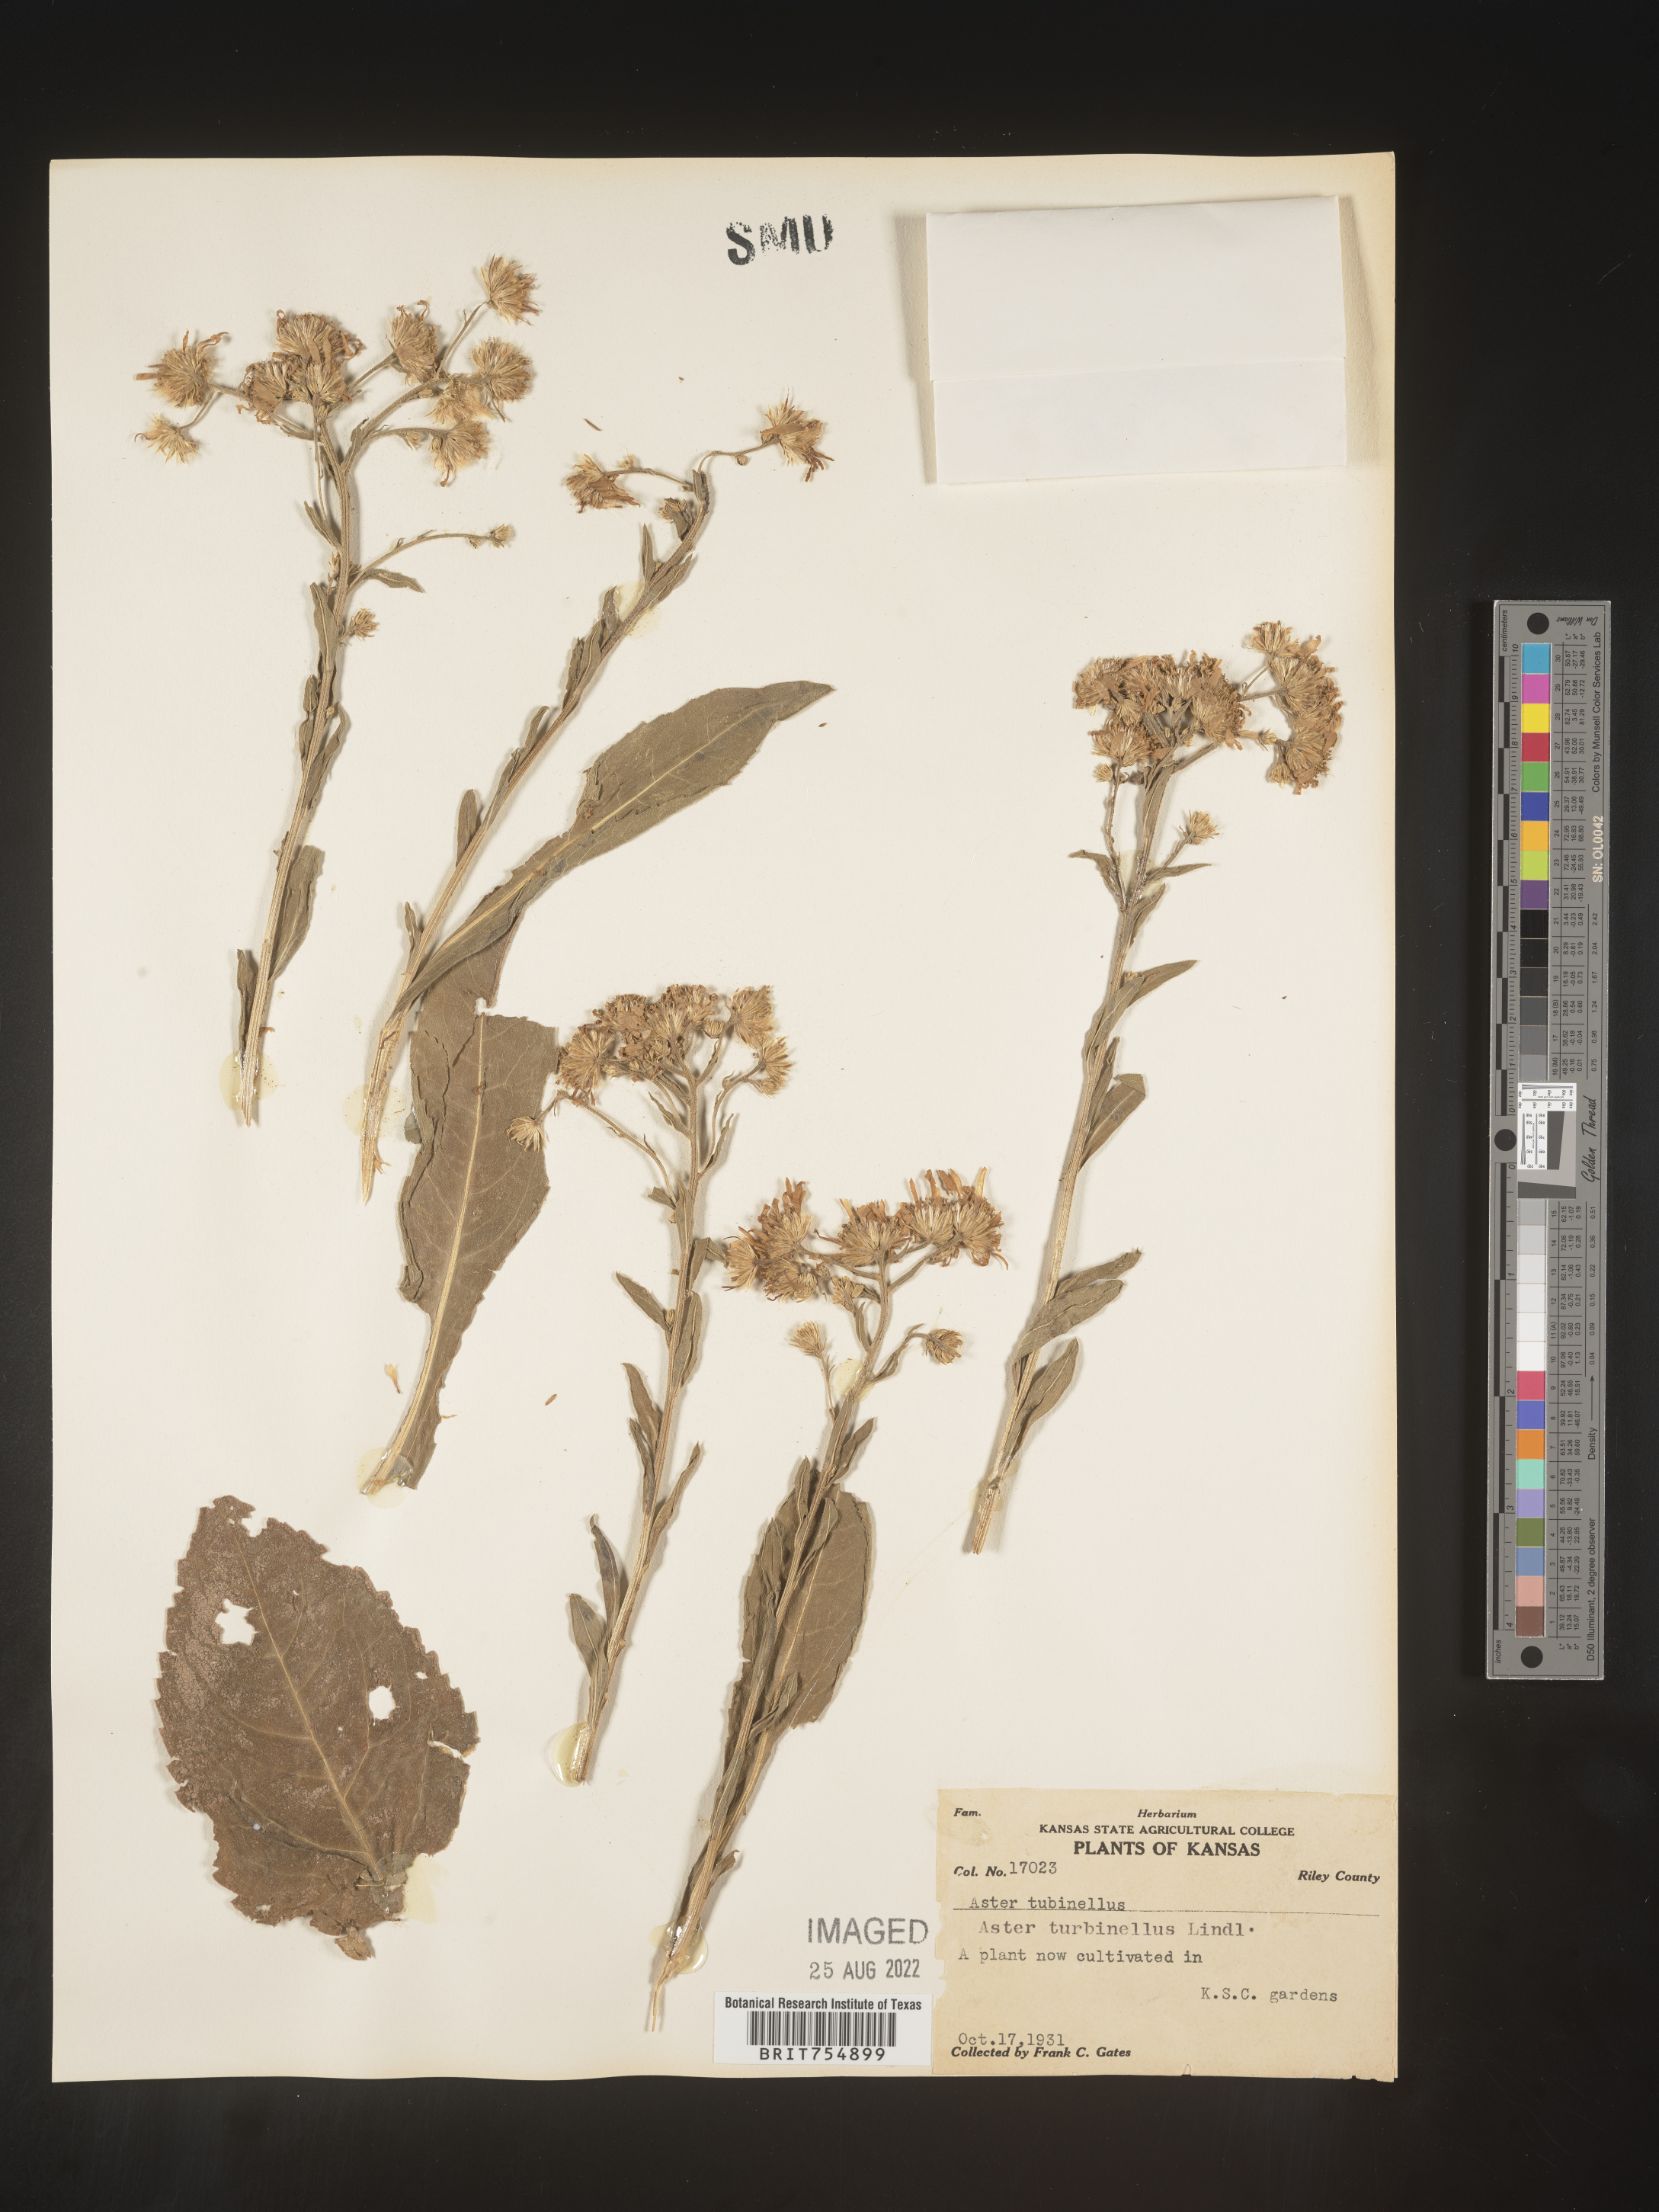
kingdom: Plantae
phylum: Tracheophyta
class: Magnoliopsida
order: Asterales
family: Asteraceae
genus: Symphyotrichum
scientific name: Symphyotrichum
